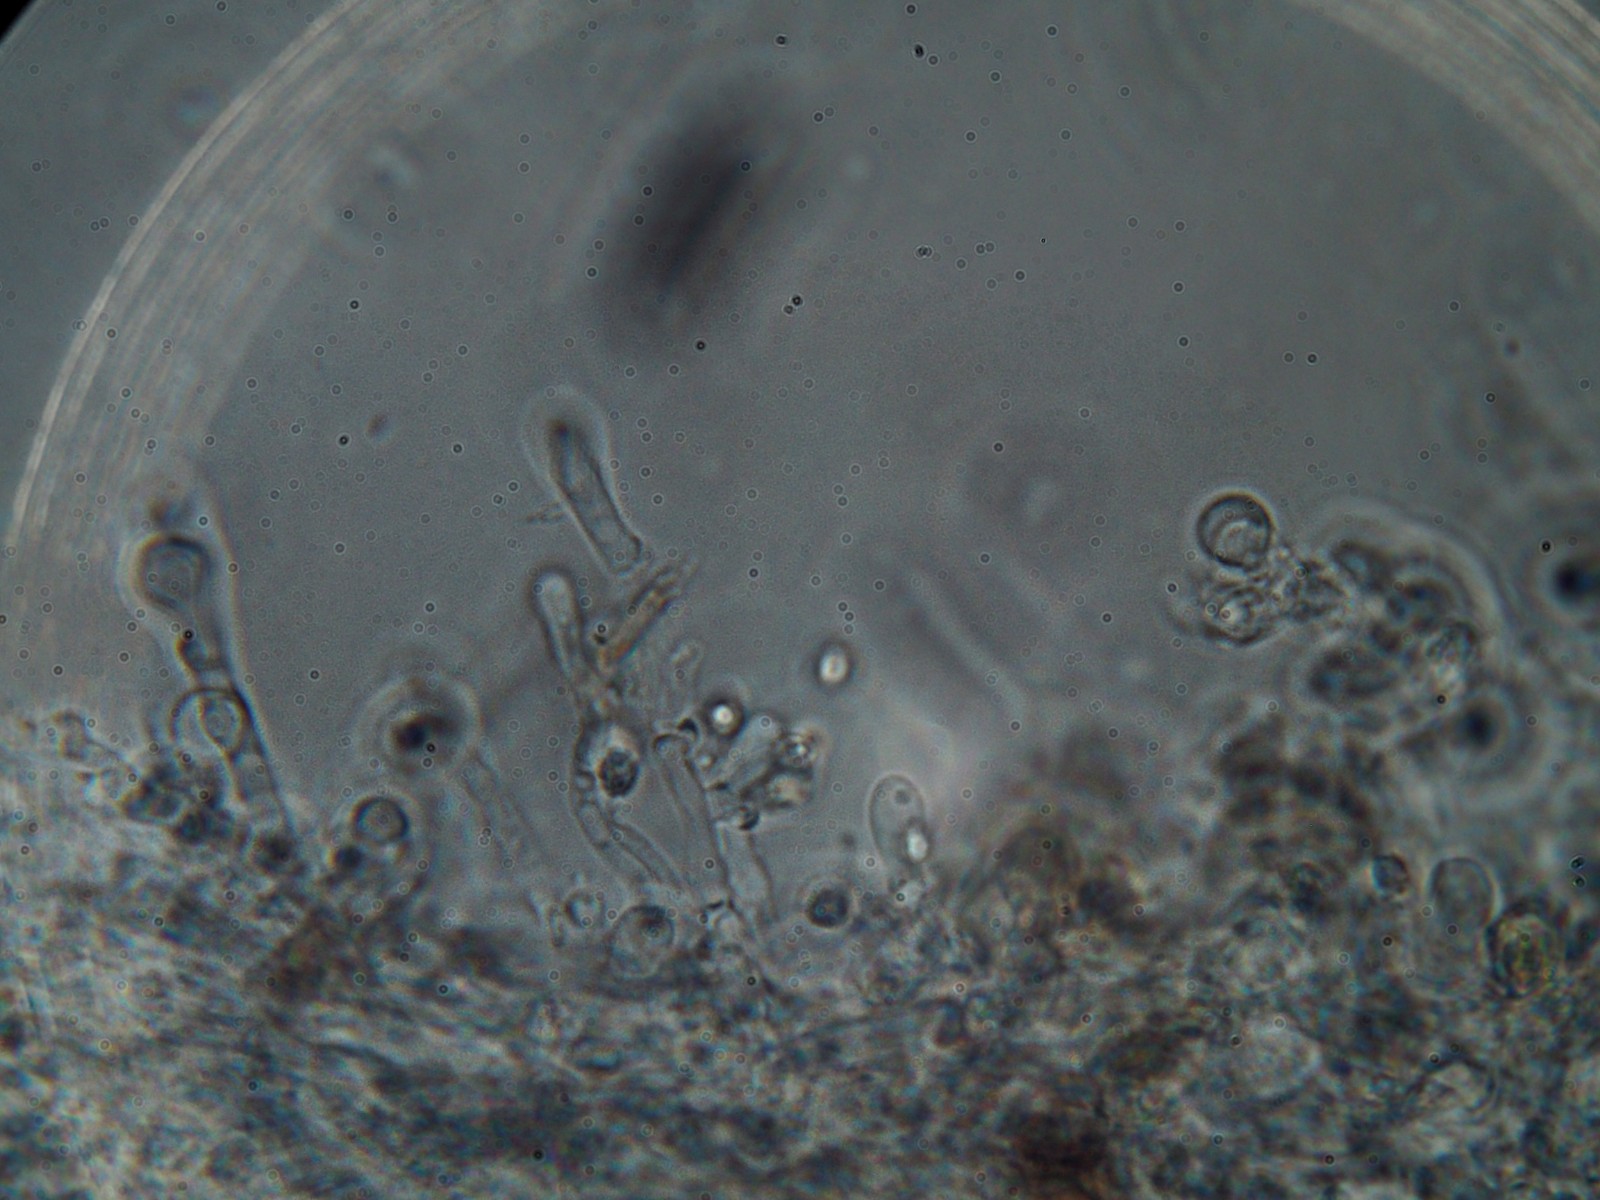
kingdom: Fungi
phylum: Basidiomycota
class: Agaricomycetes
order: Trechisporales
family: Sistotremataceae
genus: Trechispora
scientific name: Trechispora hymenocystis
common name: poret vathinde
